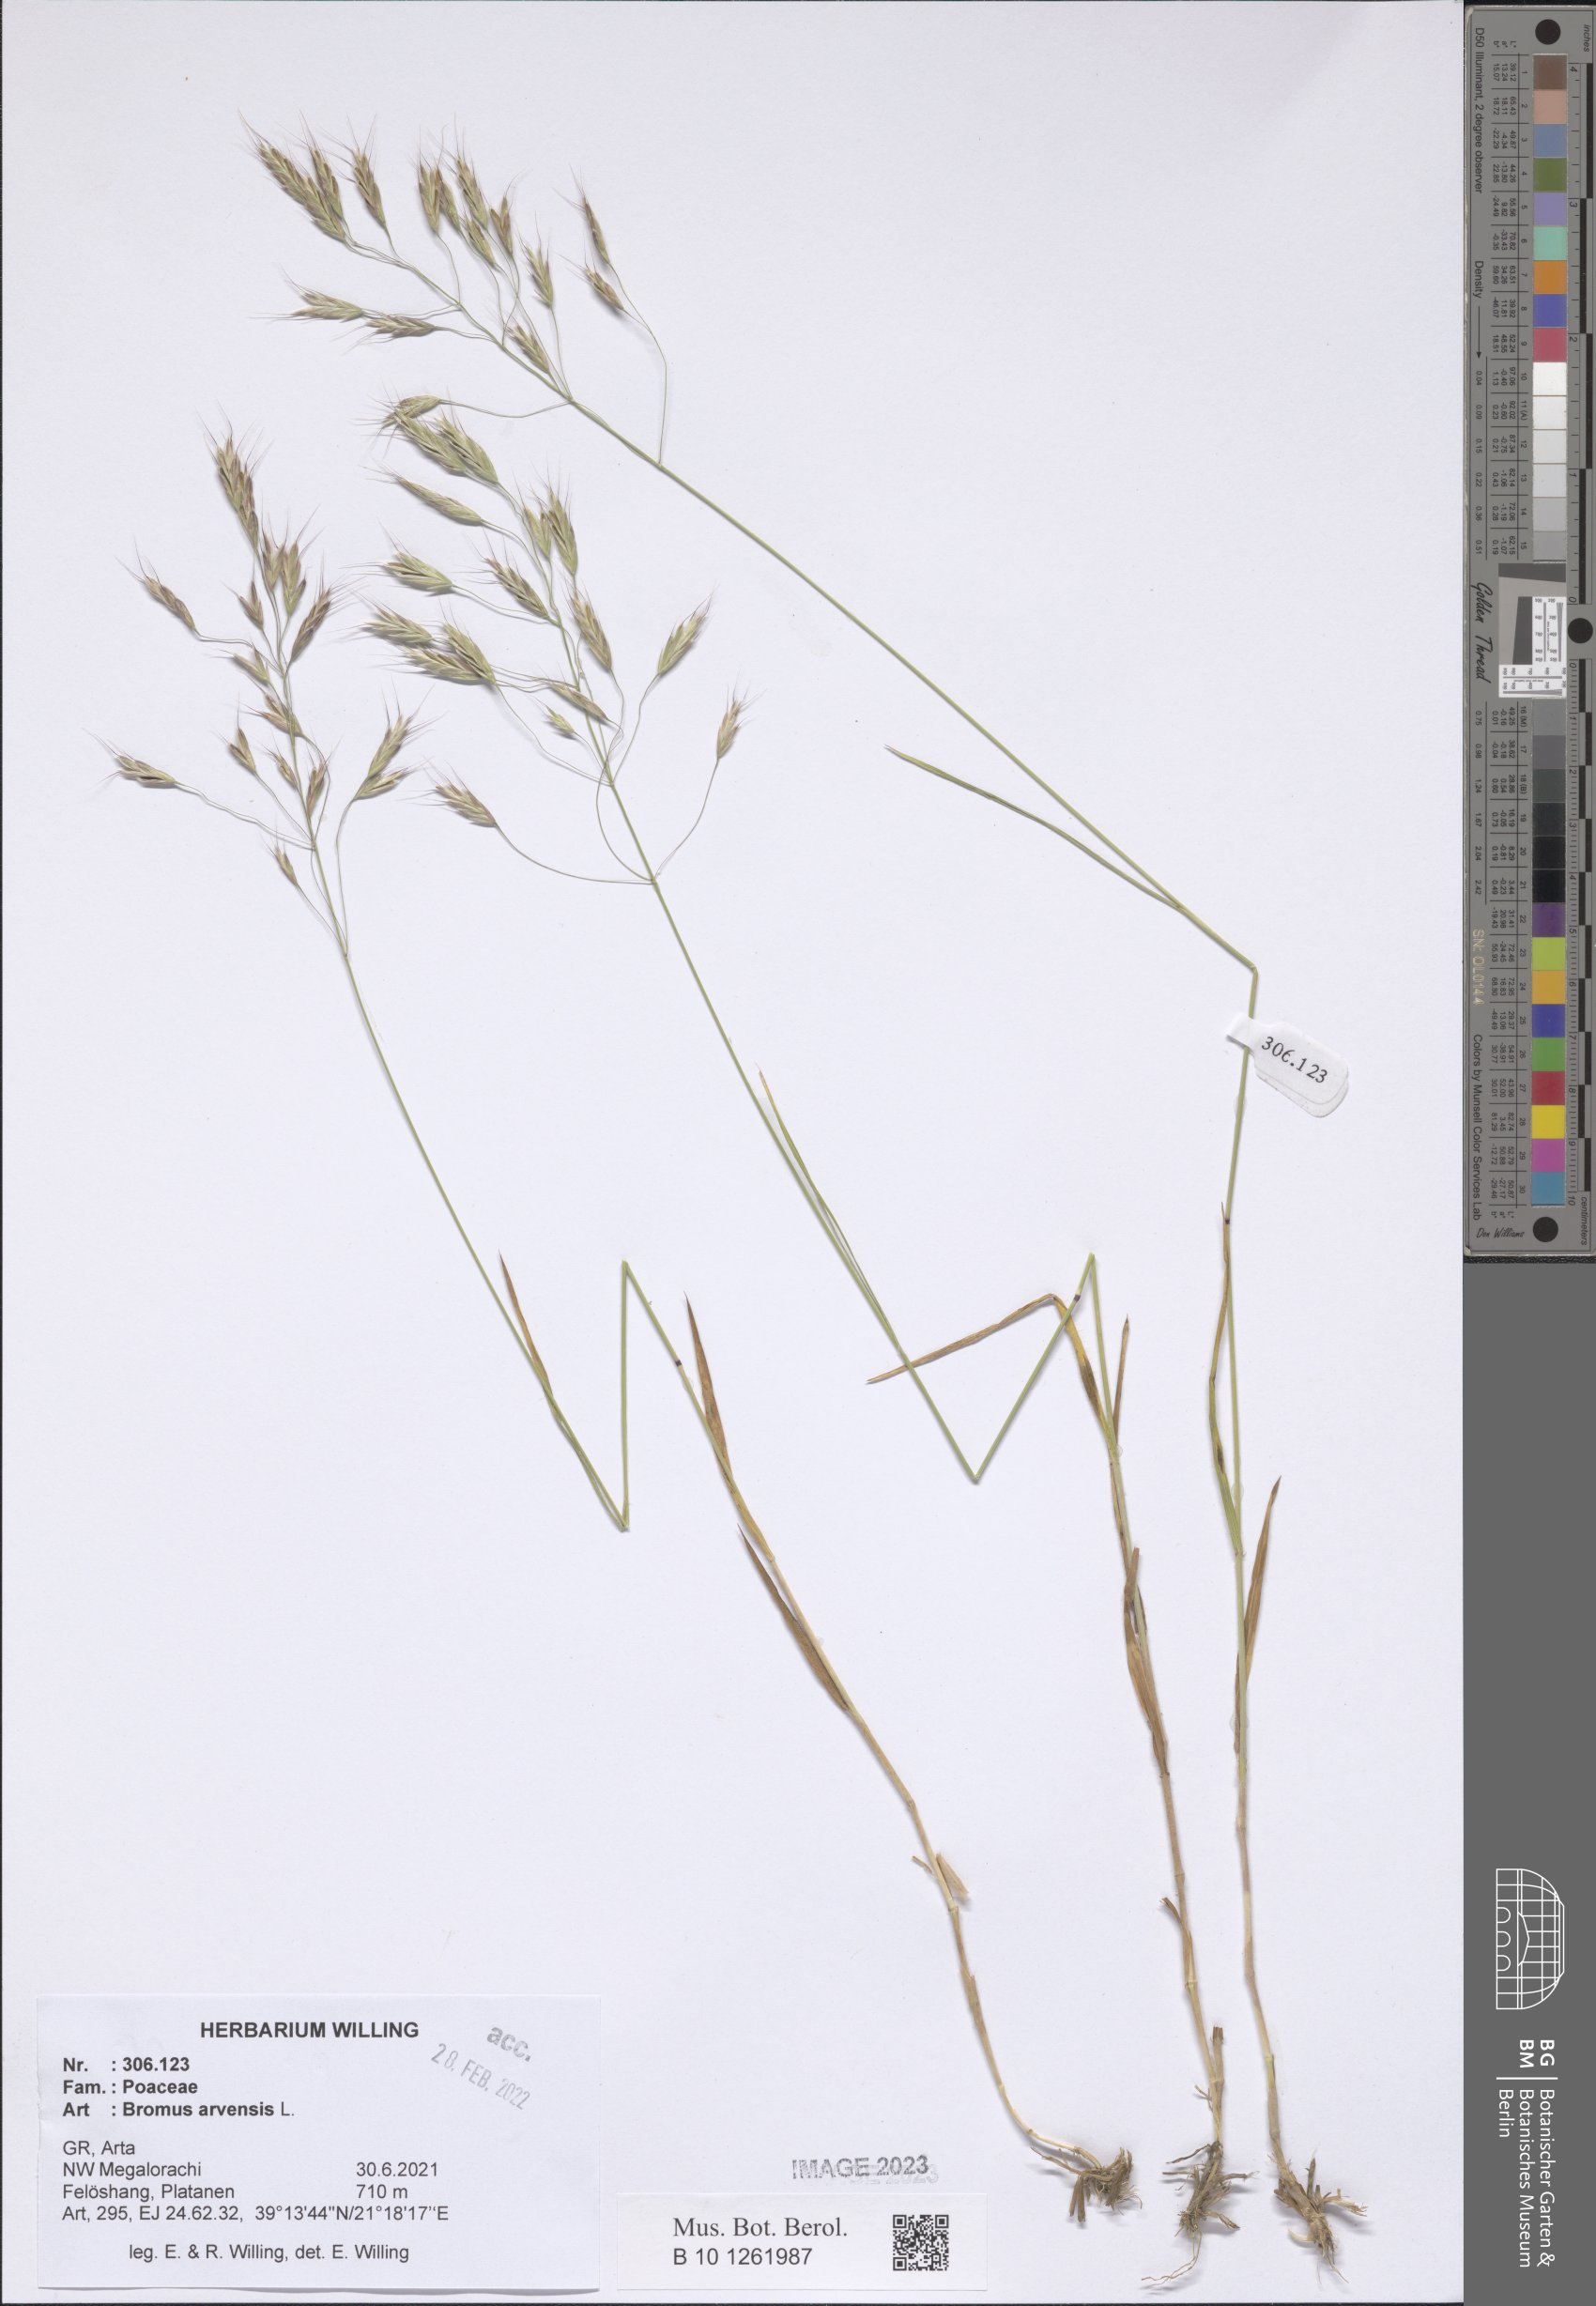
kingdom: Plantae
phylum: Tracheophyta
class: Liliopsida
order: Poales
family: Poaceae
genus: Bromus
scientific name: Bromus arvensis
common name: Field brome
